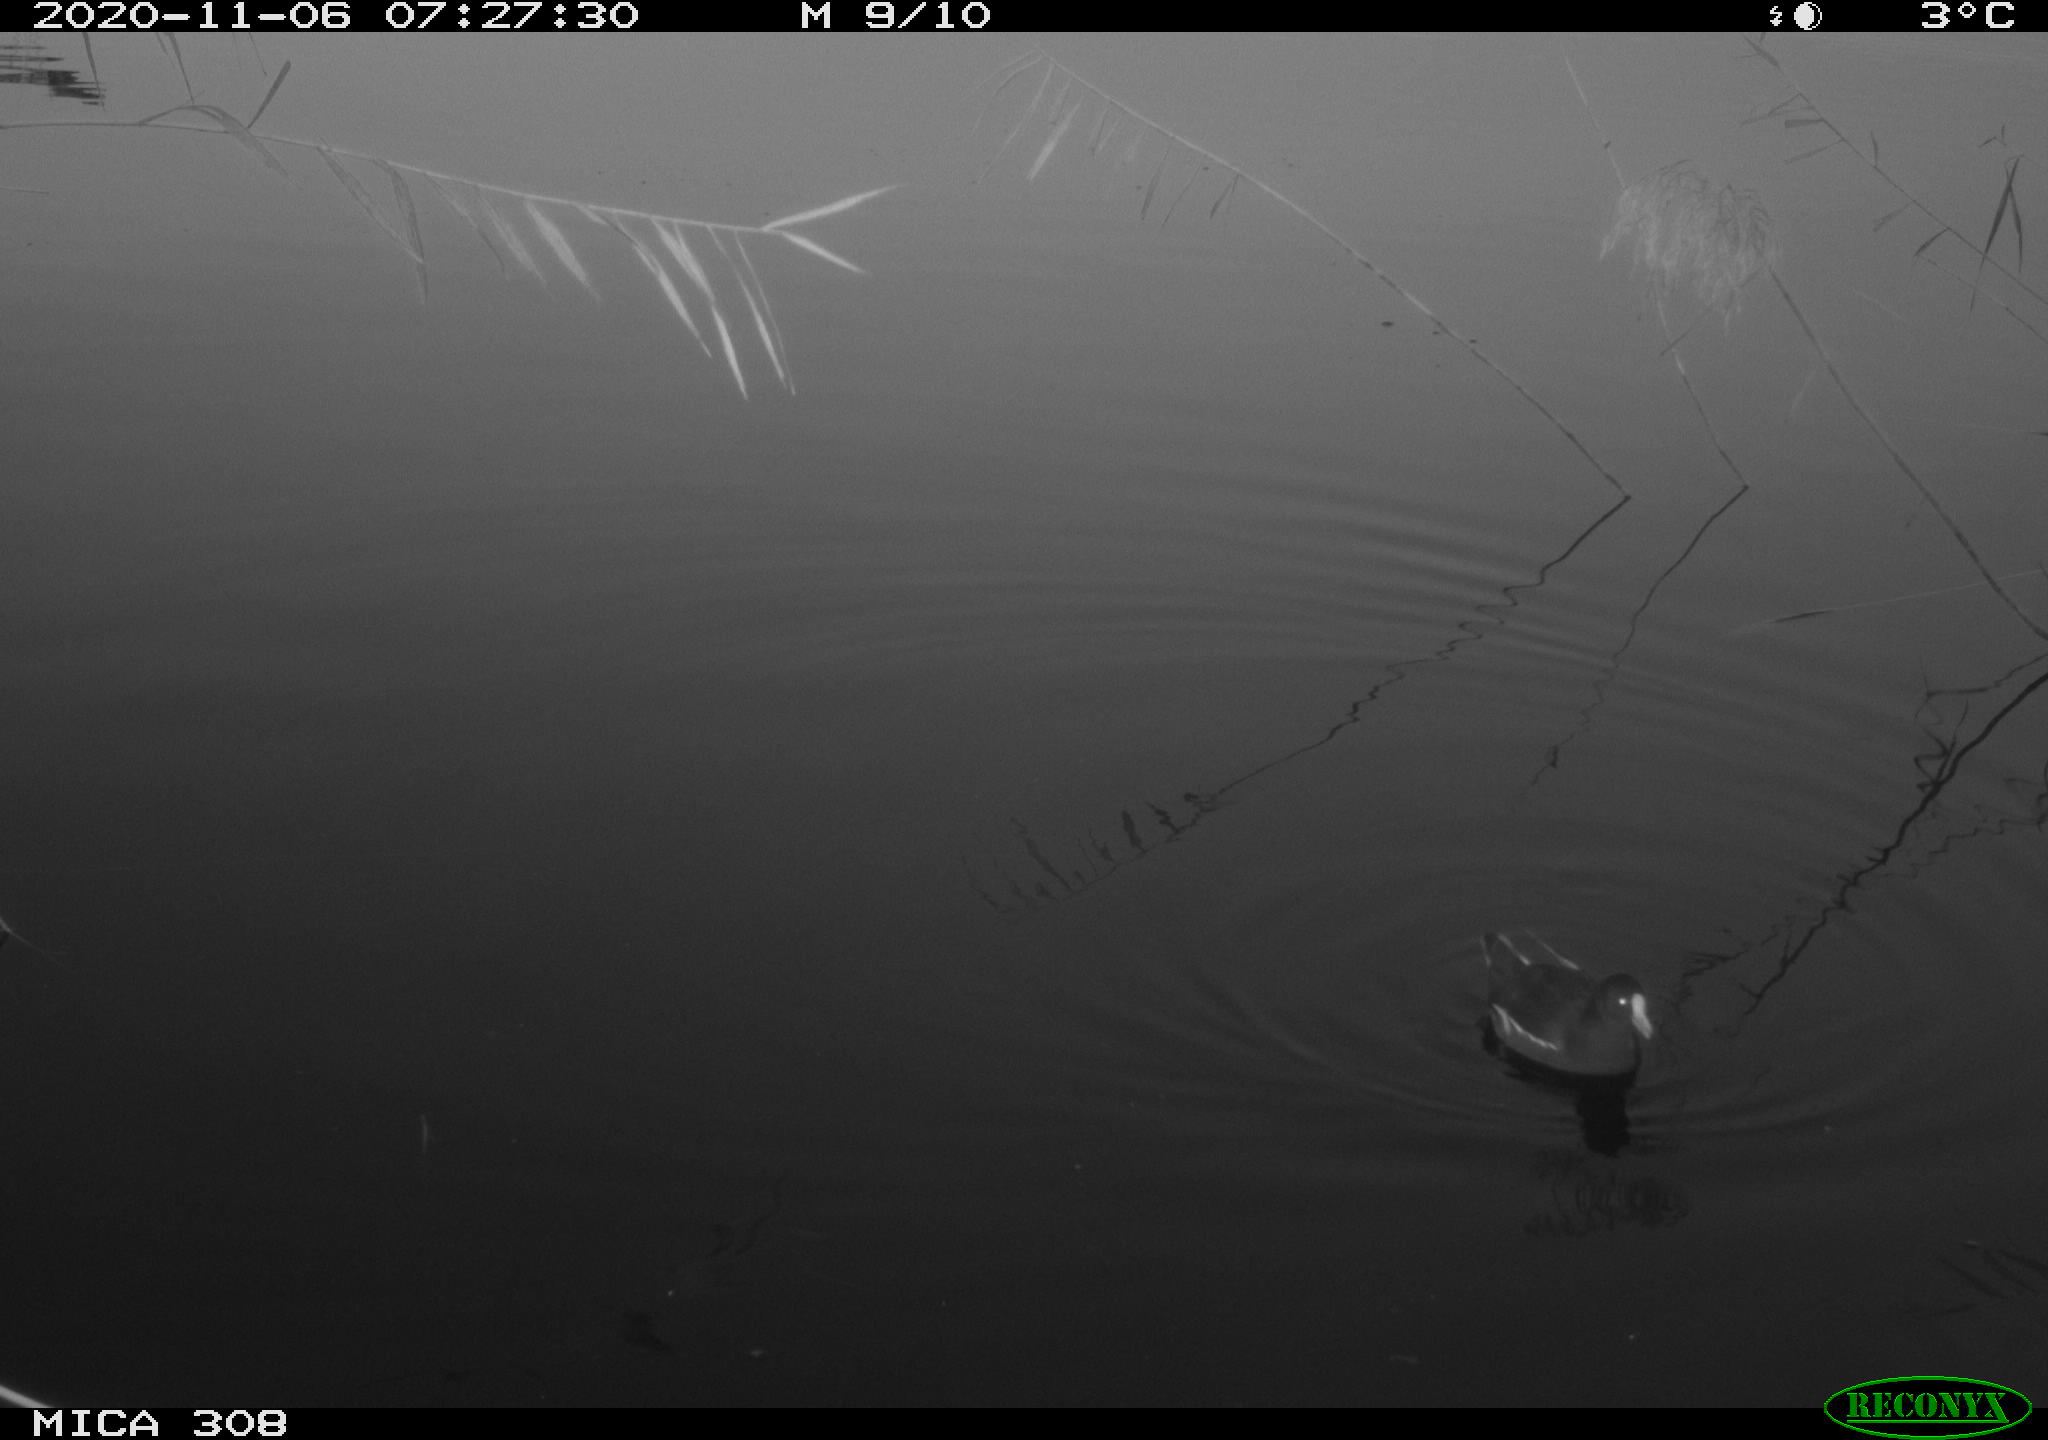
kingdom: Animalia
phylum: Chordata
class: Aves
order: Gruiformes
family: Rallidae
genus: Gallinula
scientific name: Gallinula chloropus
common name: Common moorhen
